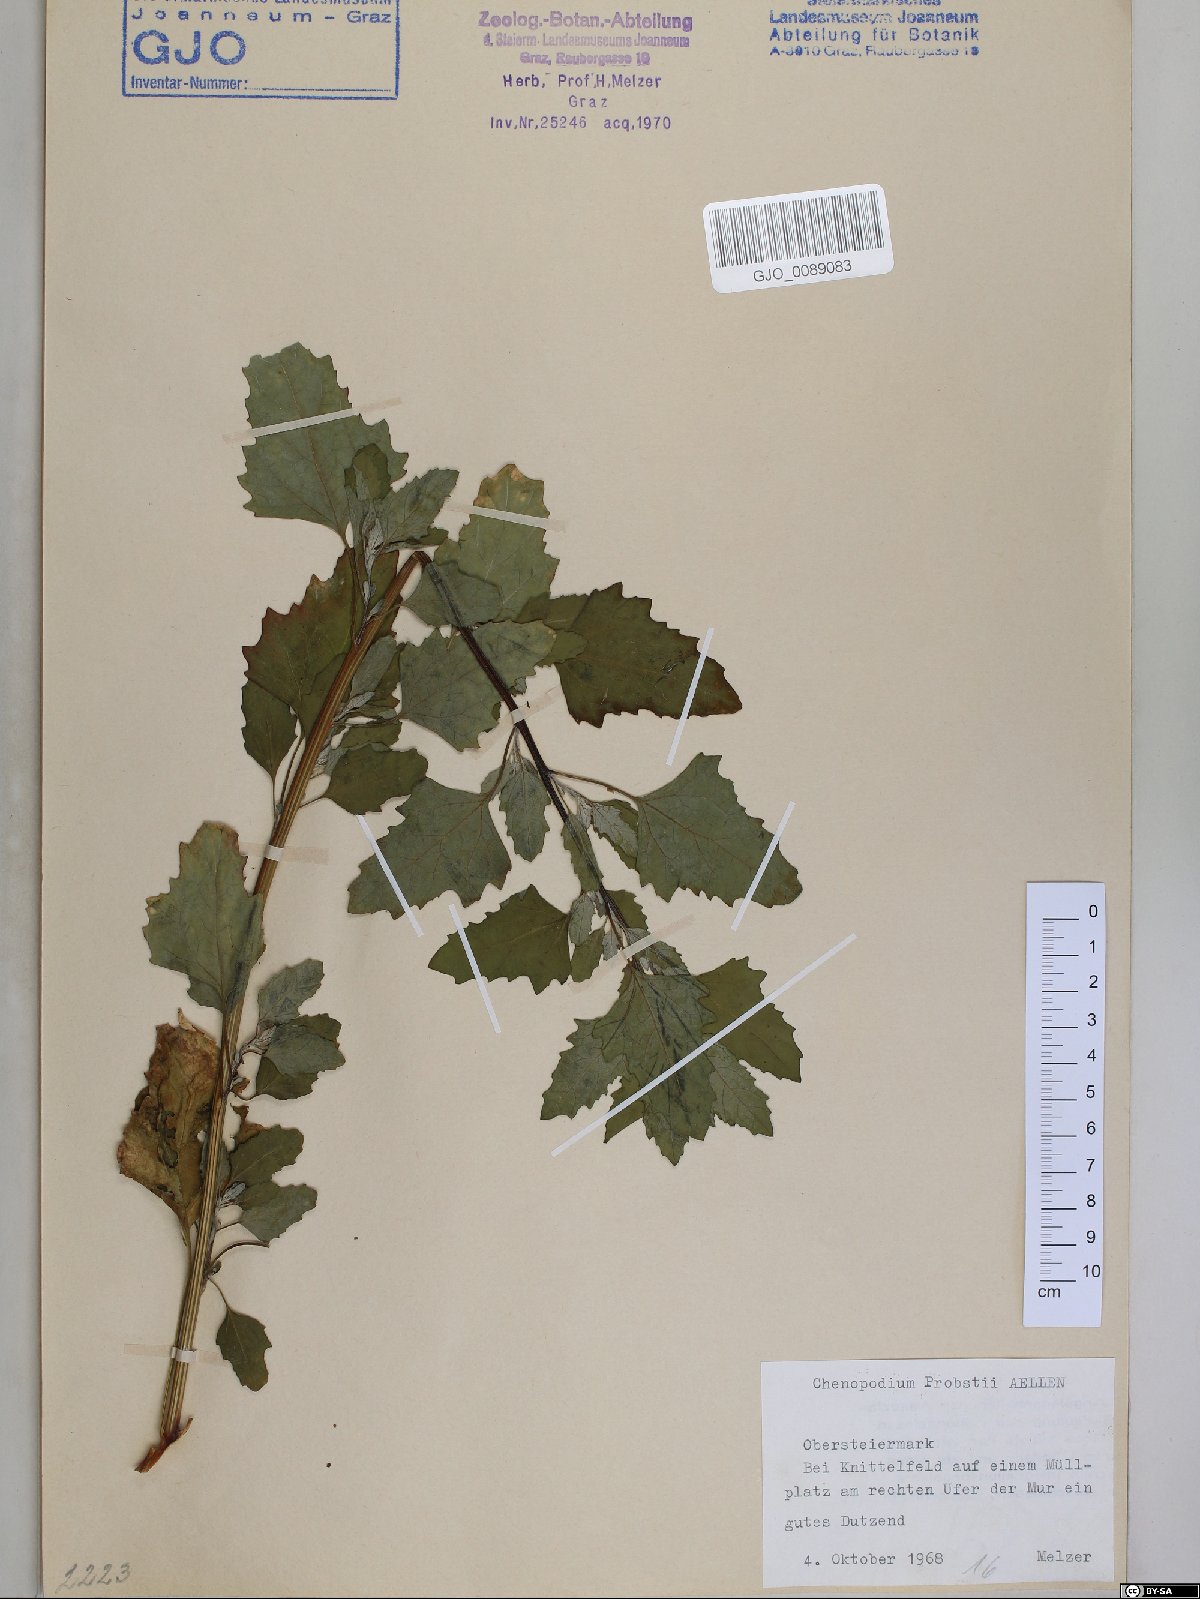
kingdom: Plantae
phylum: Tracheophyta
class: Magnoliopsida
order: Caryophyllales
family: Amaranthaceae
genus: Chenopodium
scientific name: Chenopodium probstii
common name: Probst's goosefoot
